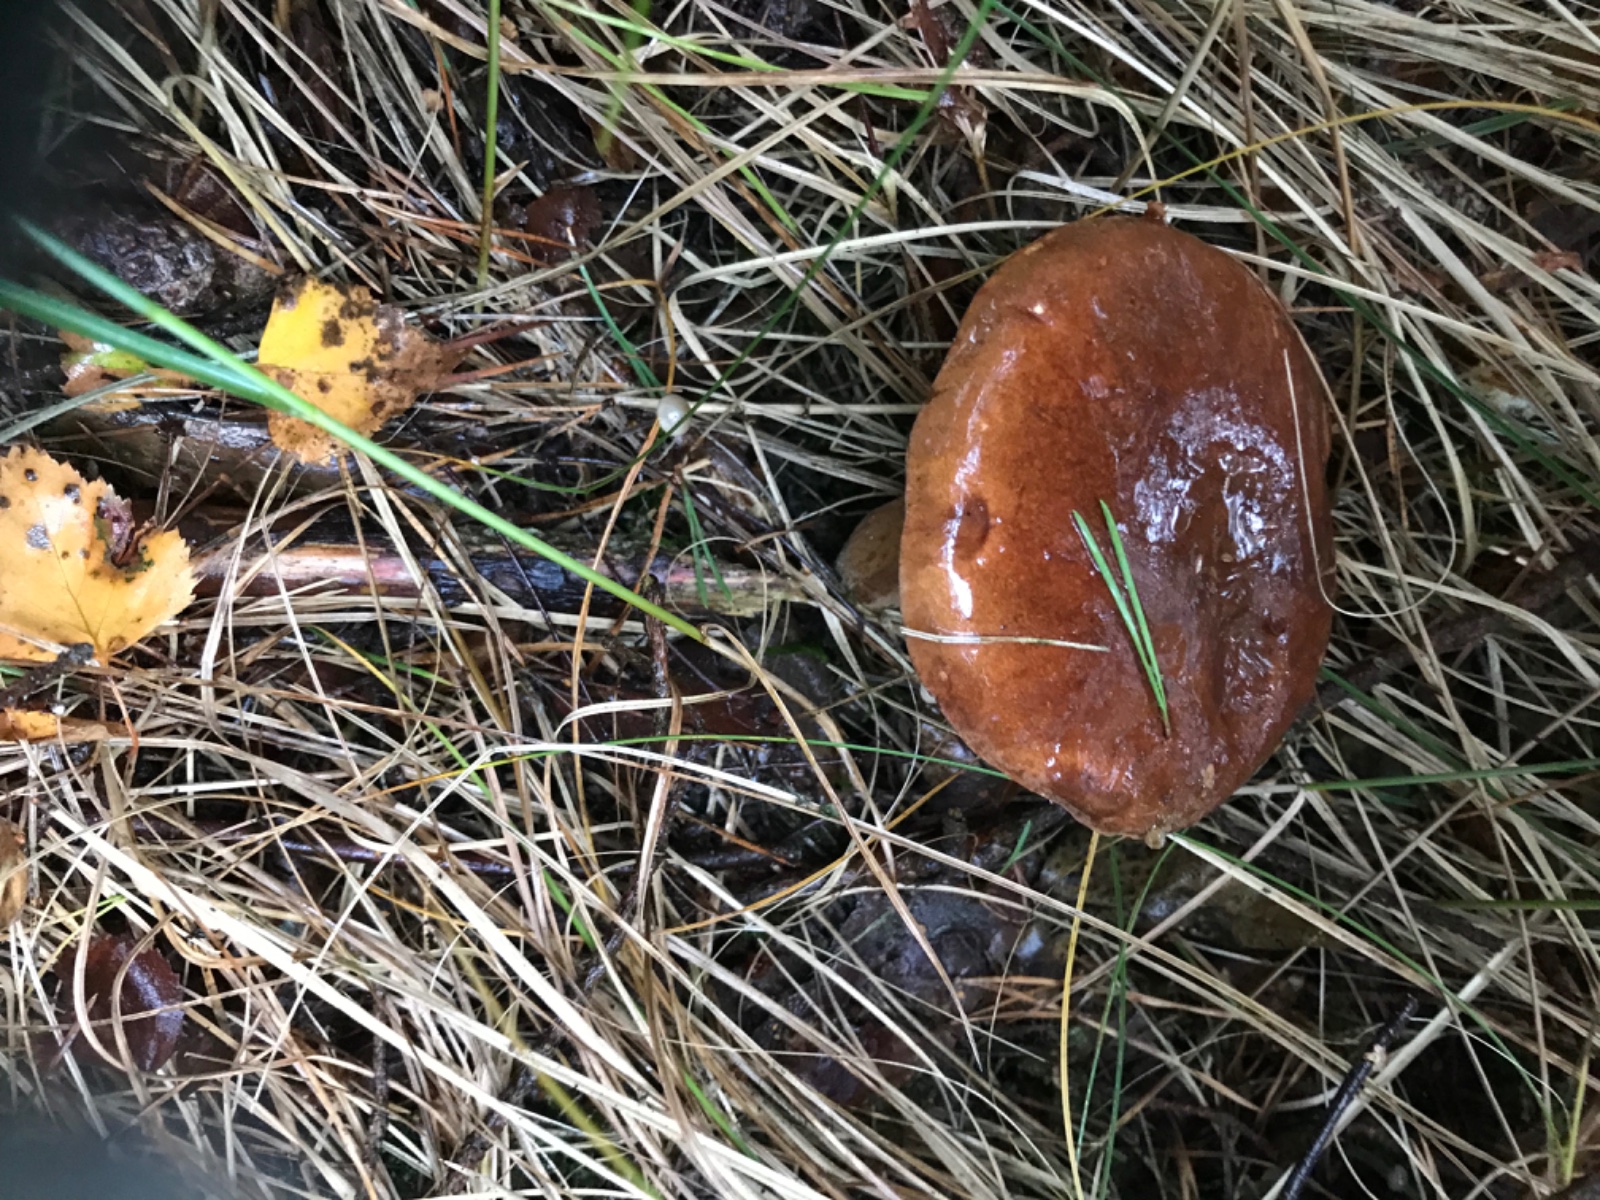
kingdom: Fungi
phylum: Basidiomycota
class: Agaricomycetes
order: Boletales
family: Boletaceae
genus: Imleria
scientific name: Imleria badia
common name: brunstokket rørhat
